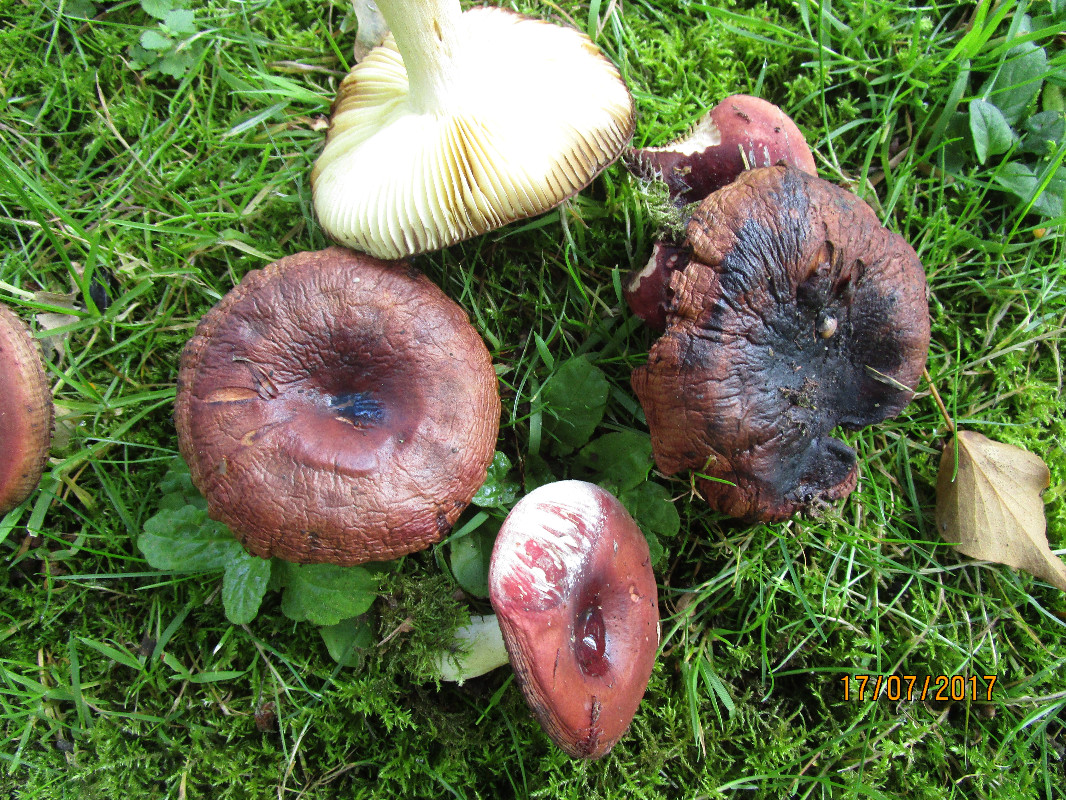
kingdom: Fungi
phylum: Basidiomycota
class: Agaricomycetes
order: Russulales
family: Russulaceae
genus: Russula
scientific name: Russula graveolens
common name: bugtet skørhat
